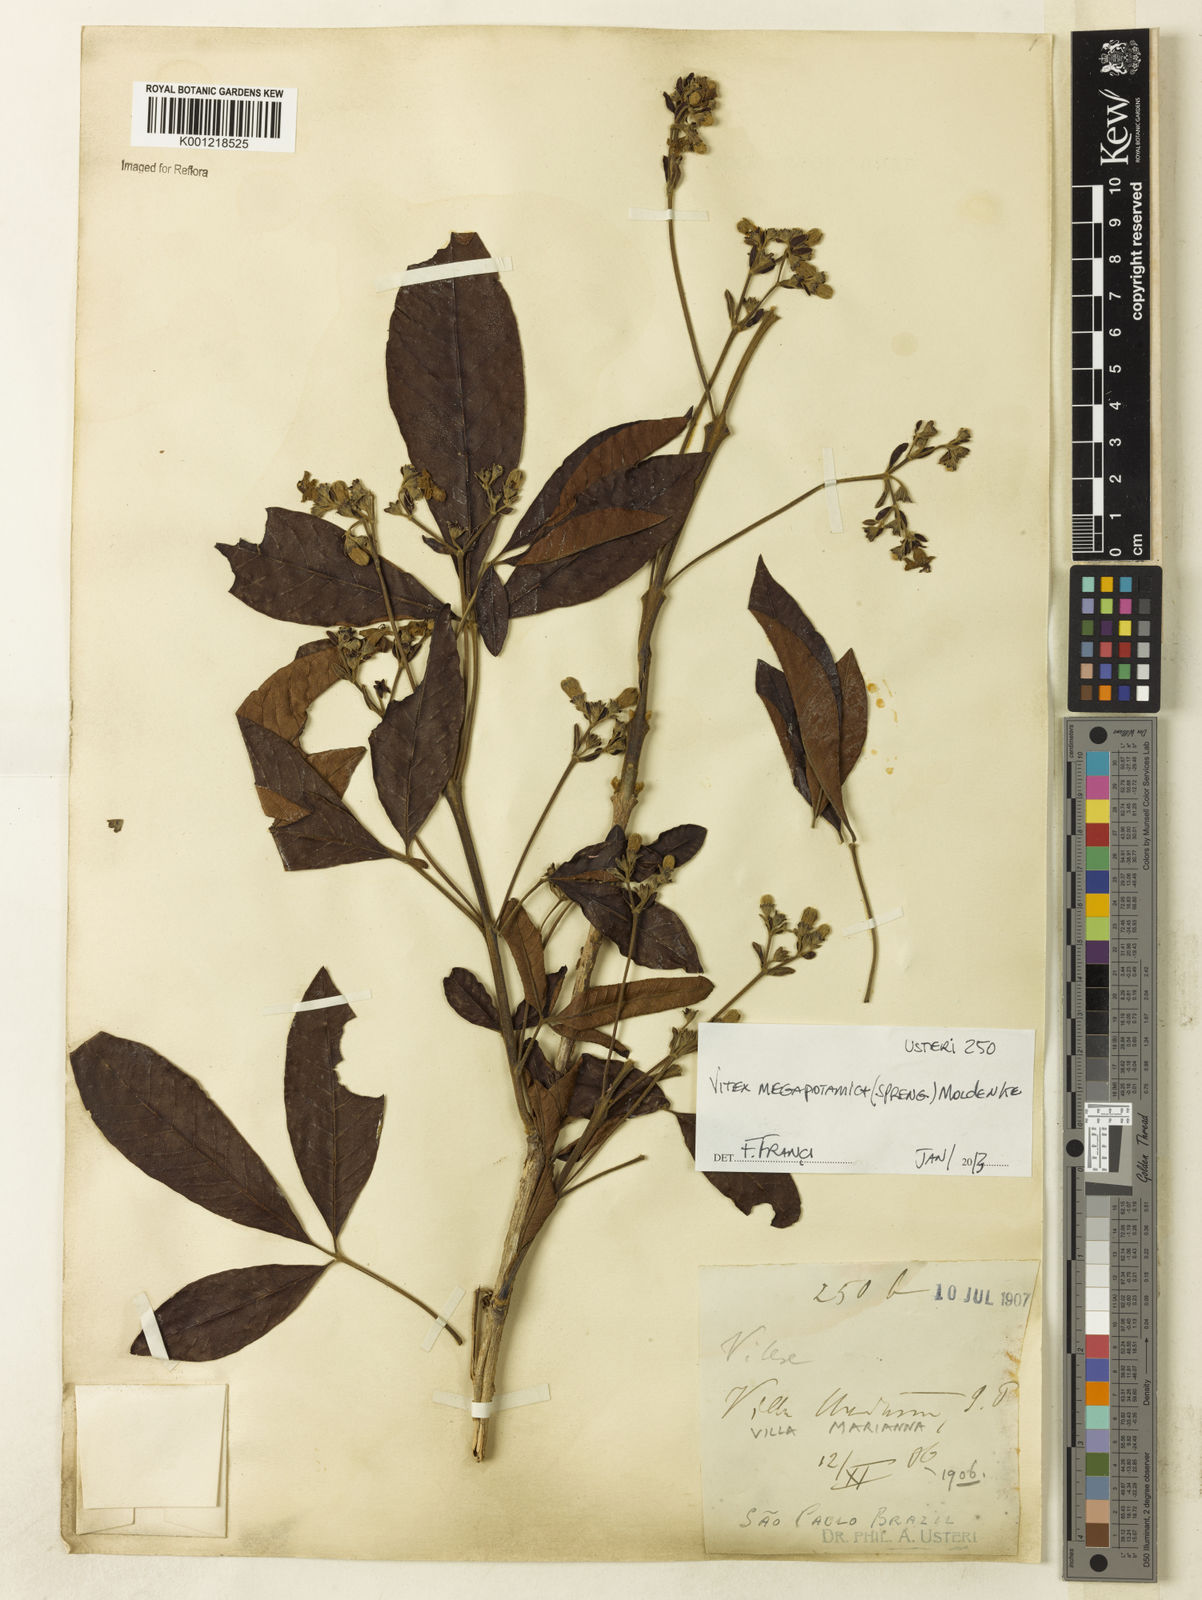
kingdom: Plantae
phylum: Tracheophyta
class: Magnoliopsida
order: Lamiales
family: Lamiaceae
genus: Vitex
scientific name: Vitex megapotamica
